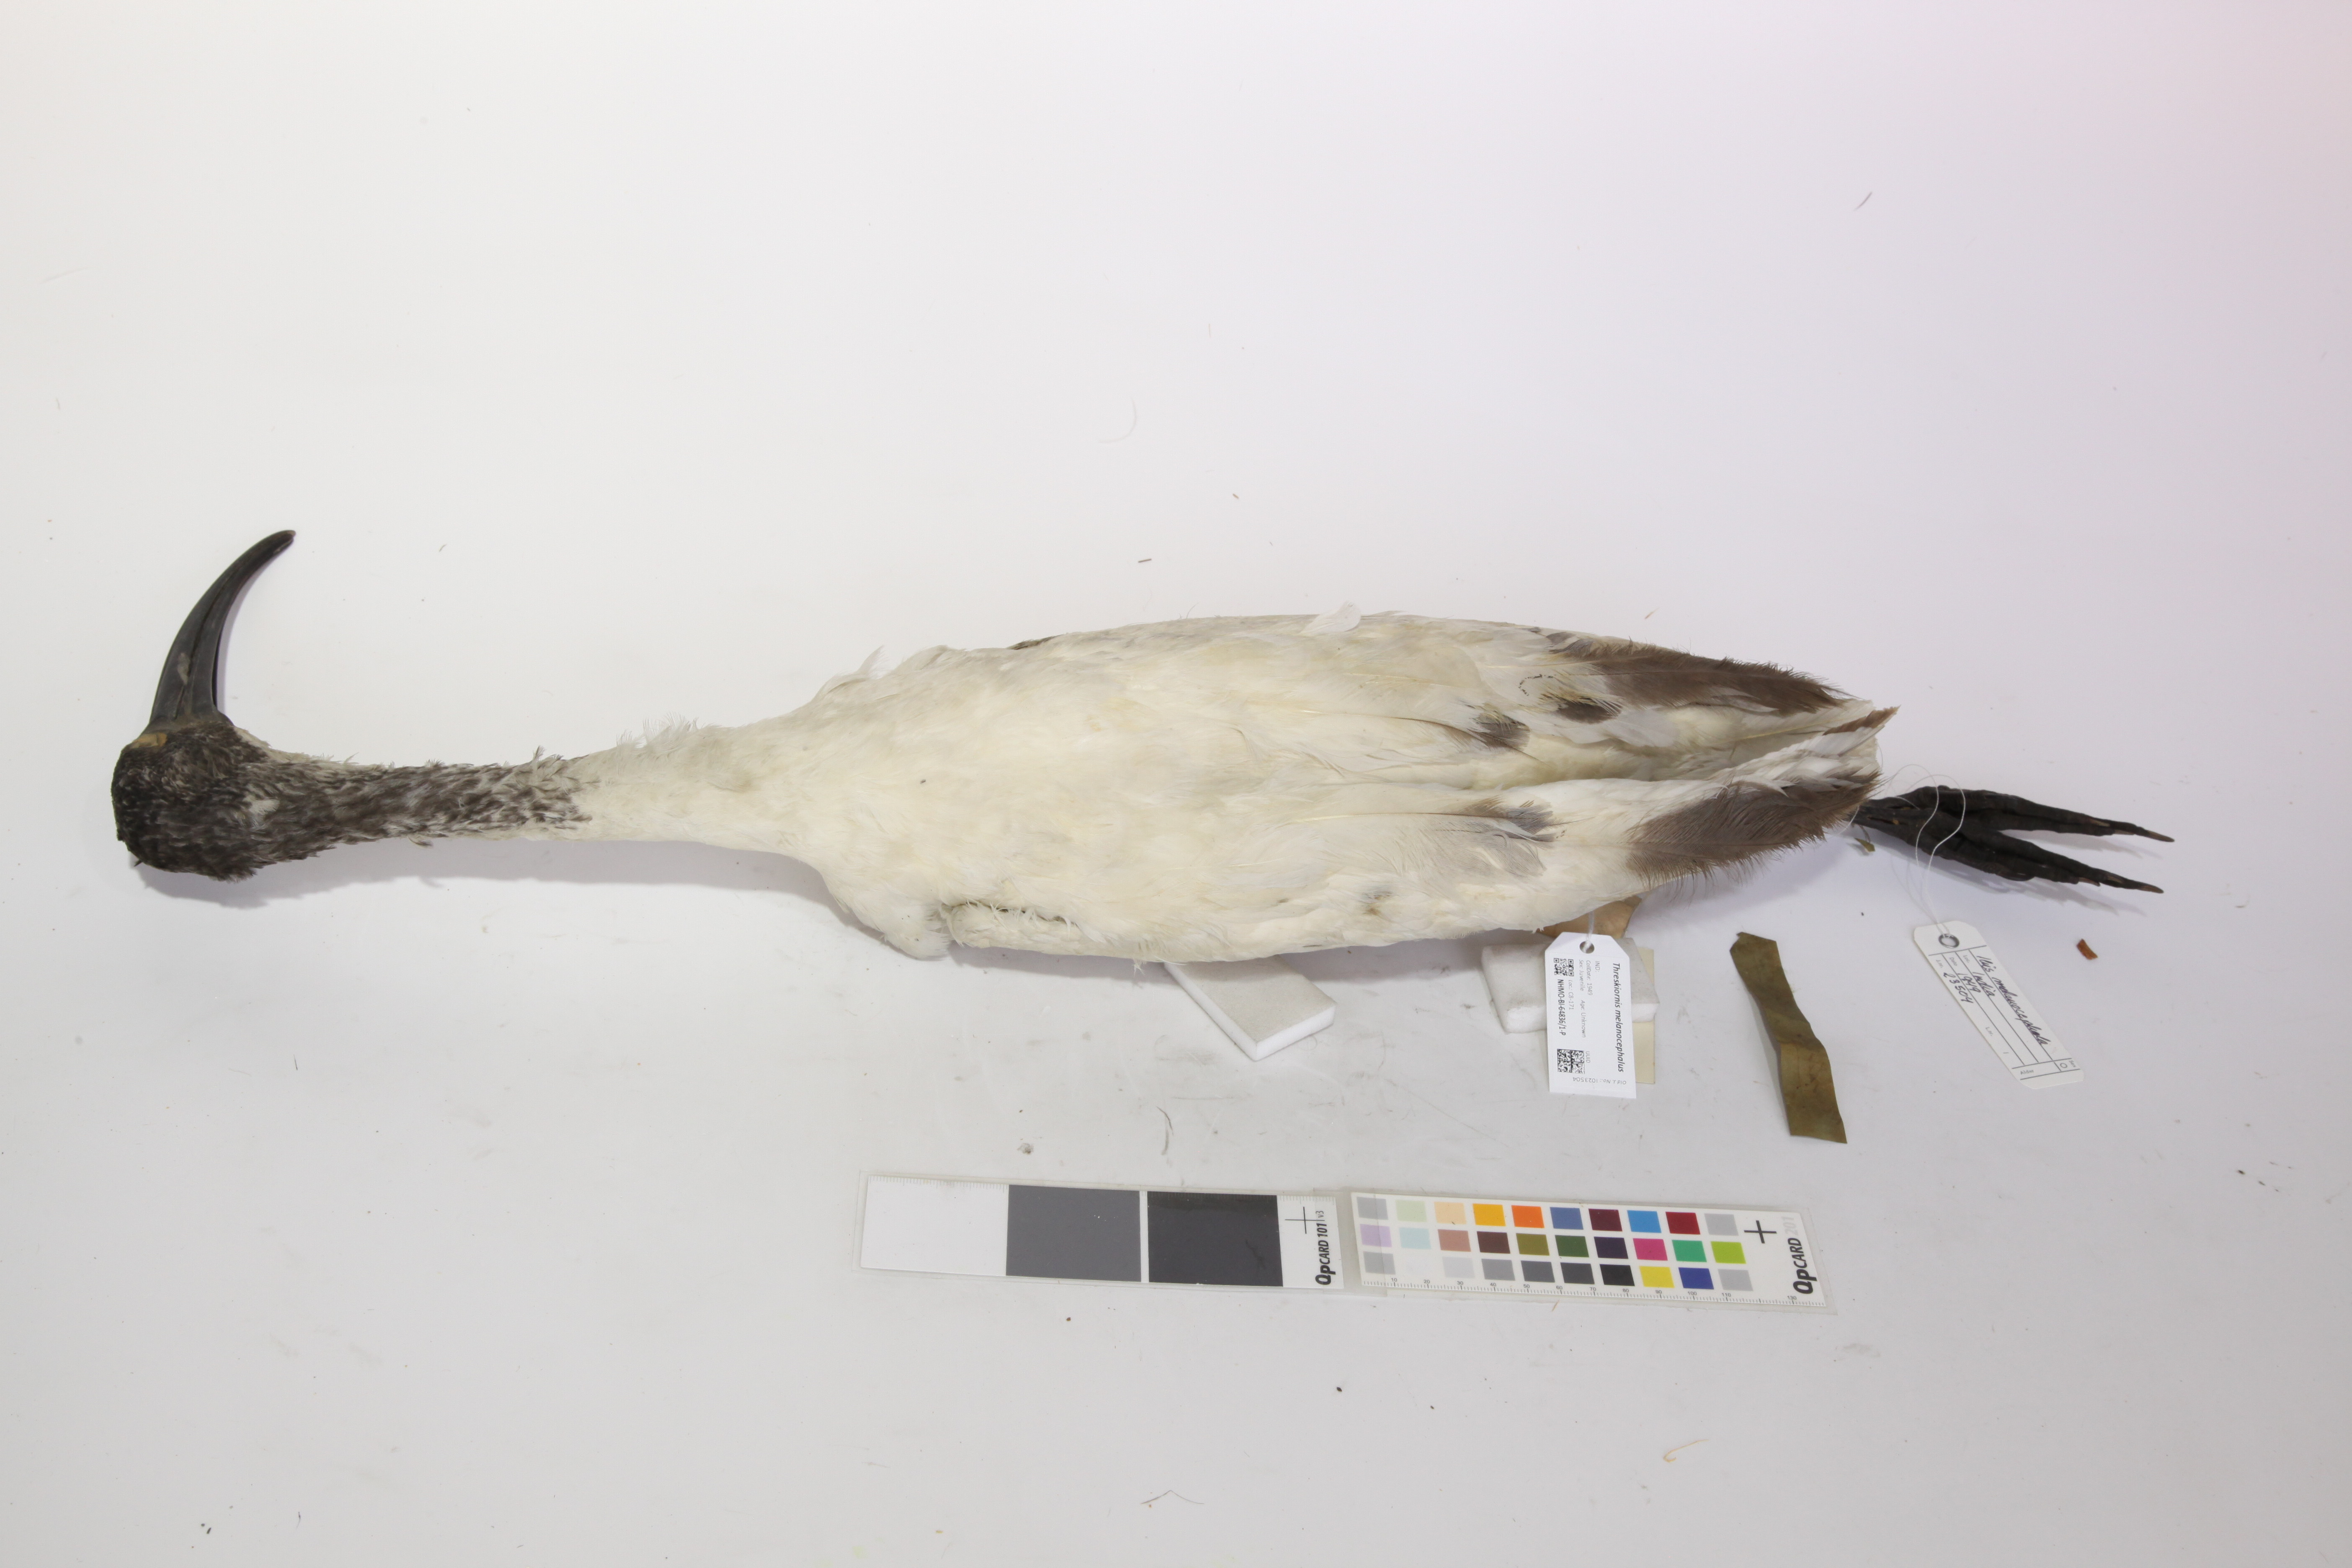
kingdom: Animalia
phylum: Chordata
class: Aves
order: Pelecaniformes
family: Threskiornithidae
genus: Threskiornis
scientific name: Threskiornis melanocephalus
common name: Black-headed ibis
